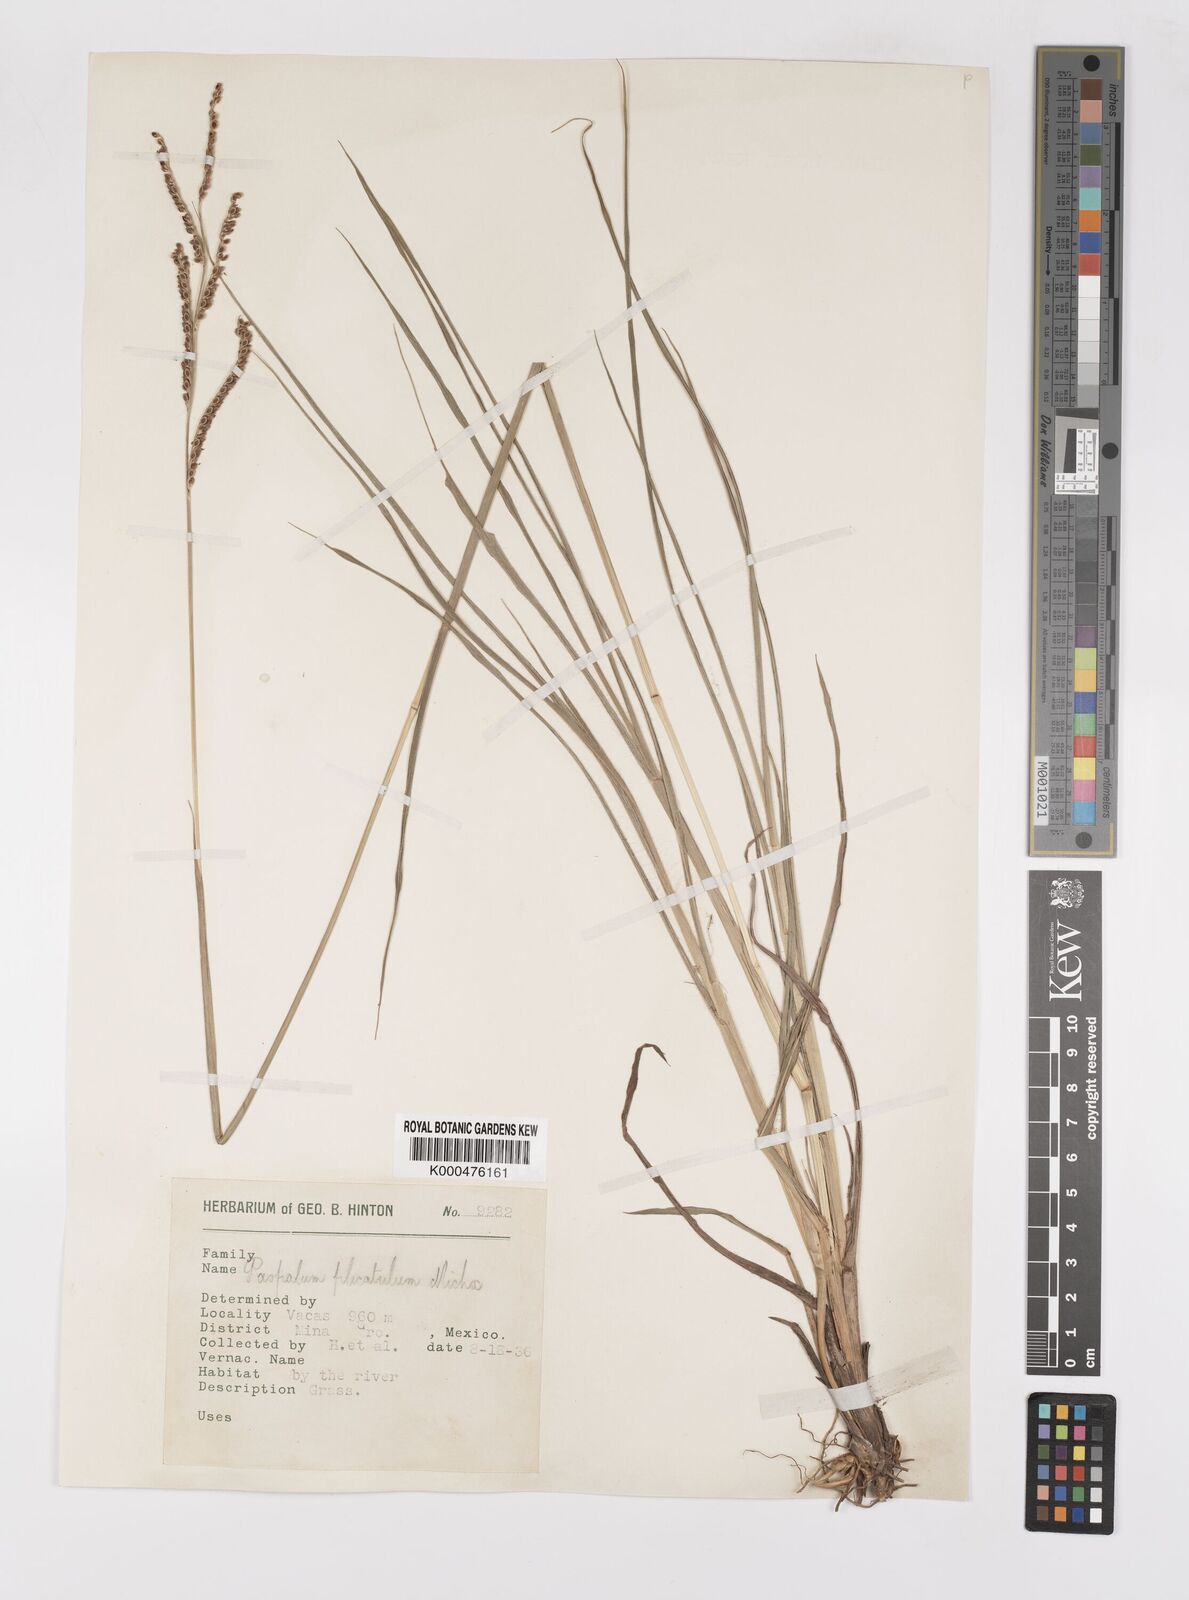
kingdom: Plantae
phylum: Tracheophyta
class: Liliopsida
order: Poales
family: Poaceae
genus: Paspalum
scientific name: Paspalum plicatulum
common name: Top paspalum
